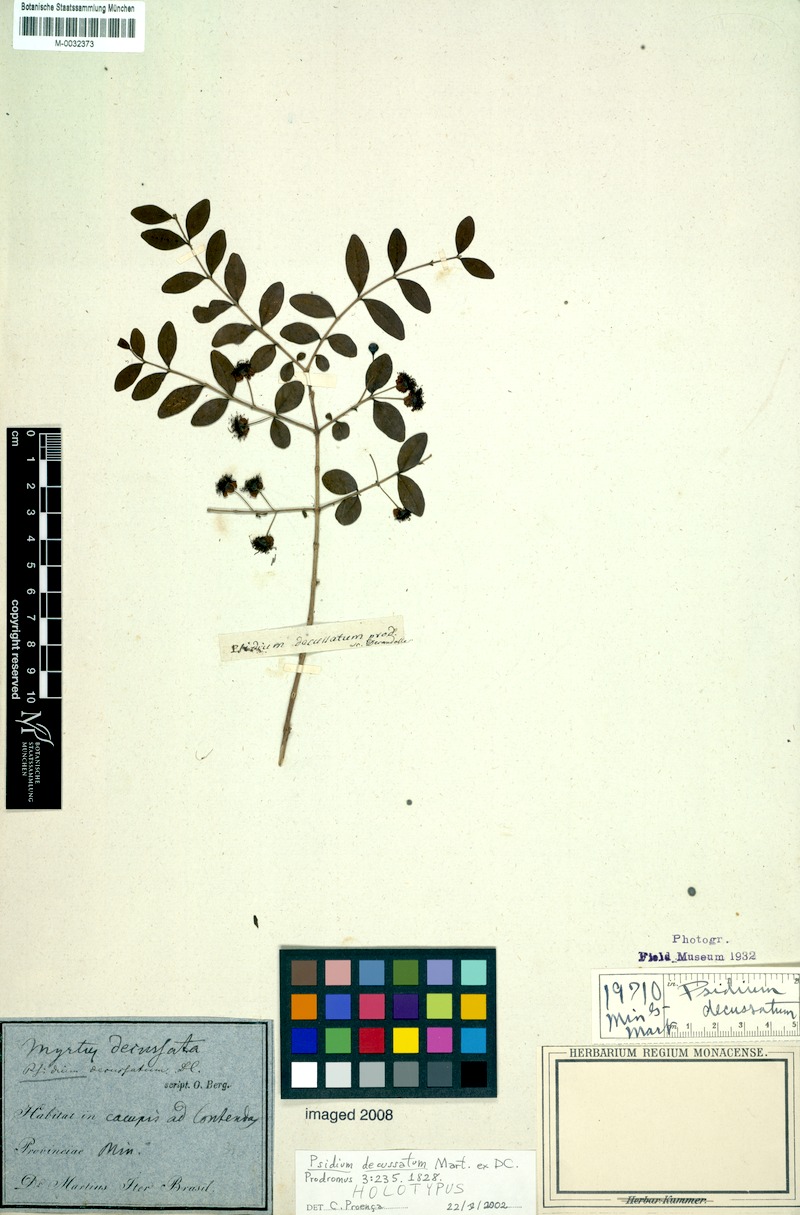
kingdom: Plantae
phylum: Tracheophyta
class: Magnoliopsida
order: Myrtales
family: Myrtaceae
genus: Psidium
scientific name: Psidium salutare
